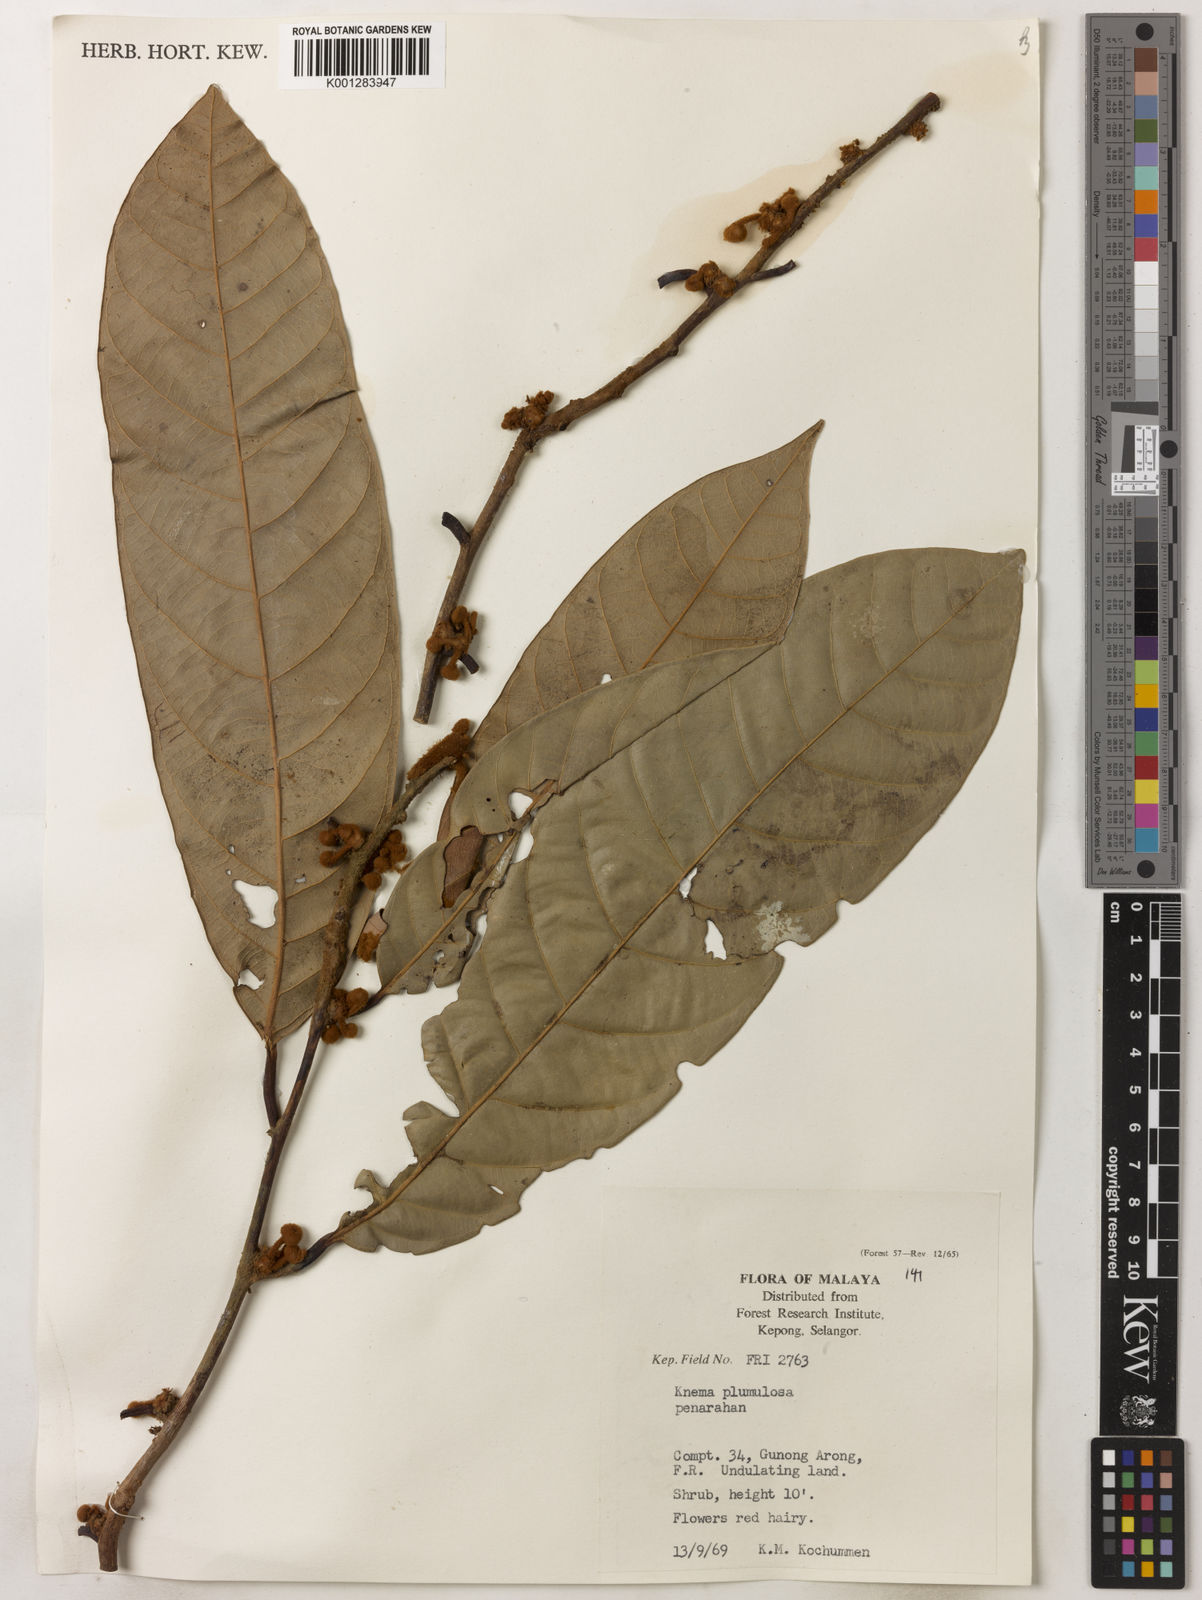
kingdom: Plantae
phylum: Tracheophyta
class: Magnoliopsida
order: Magnoliales
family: Myristicaceae
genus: Knema
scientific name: Knema plumulosa
